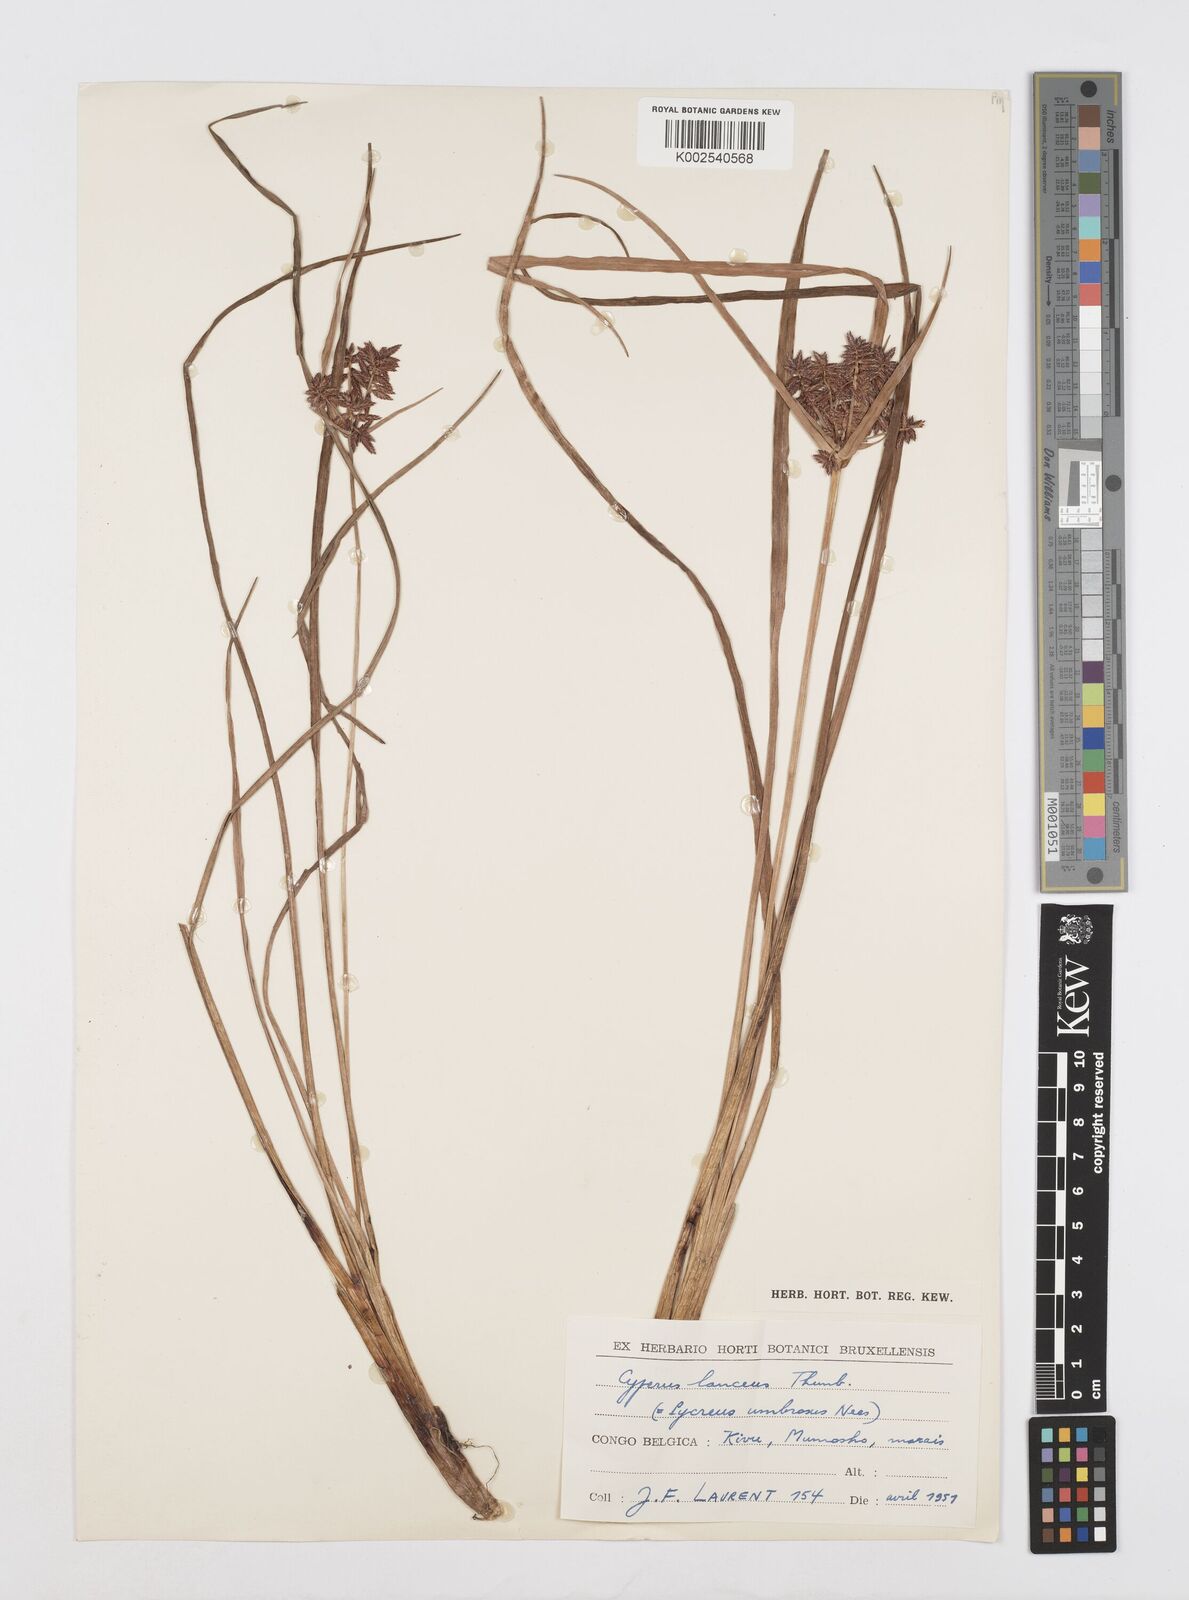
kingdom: Plantae
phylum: Tracheophyta
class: Liliopsida
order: Poales
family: Cyperaceae
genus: Cyperus
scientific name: Cyperus nitidus
